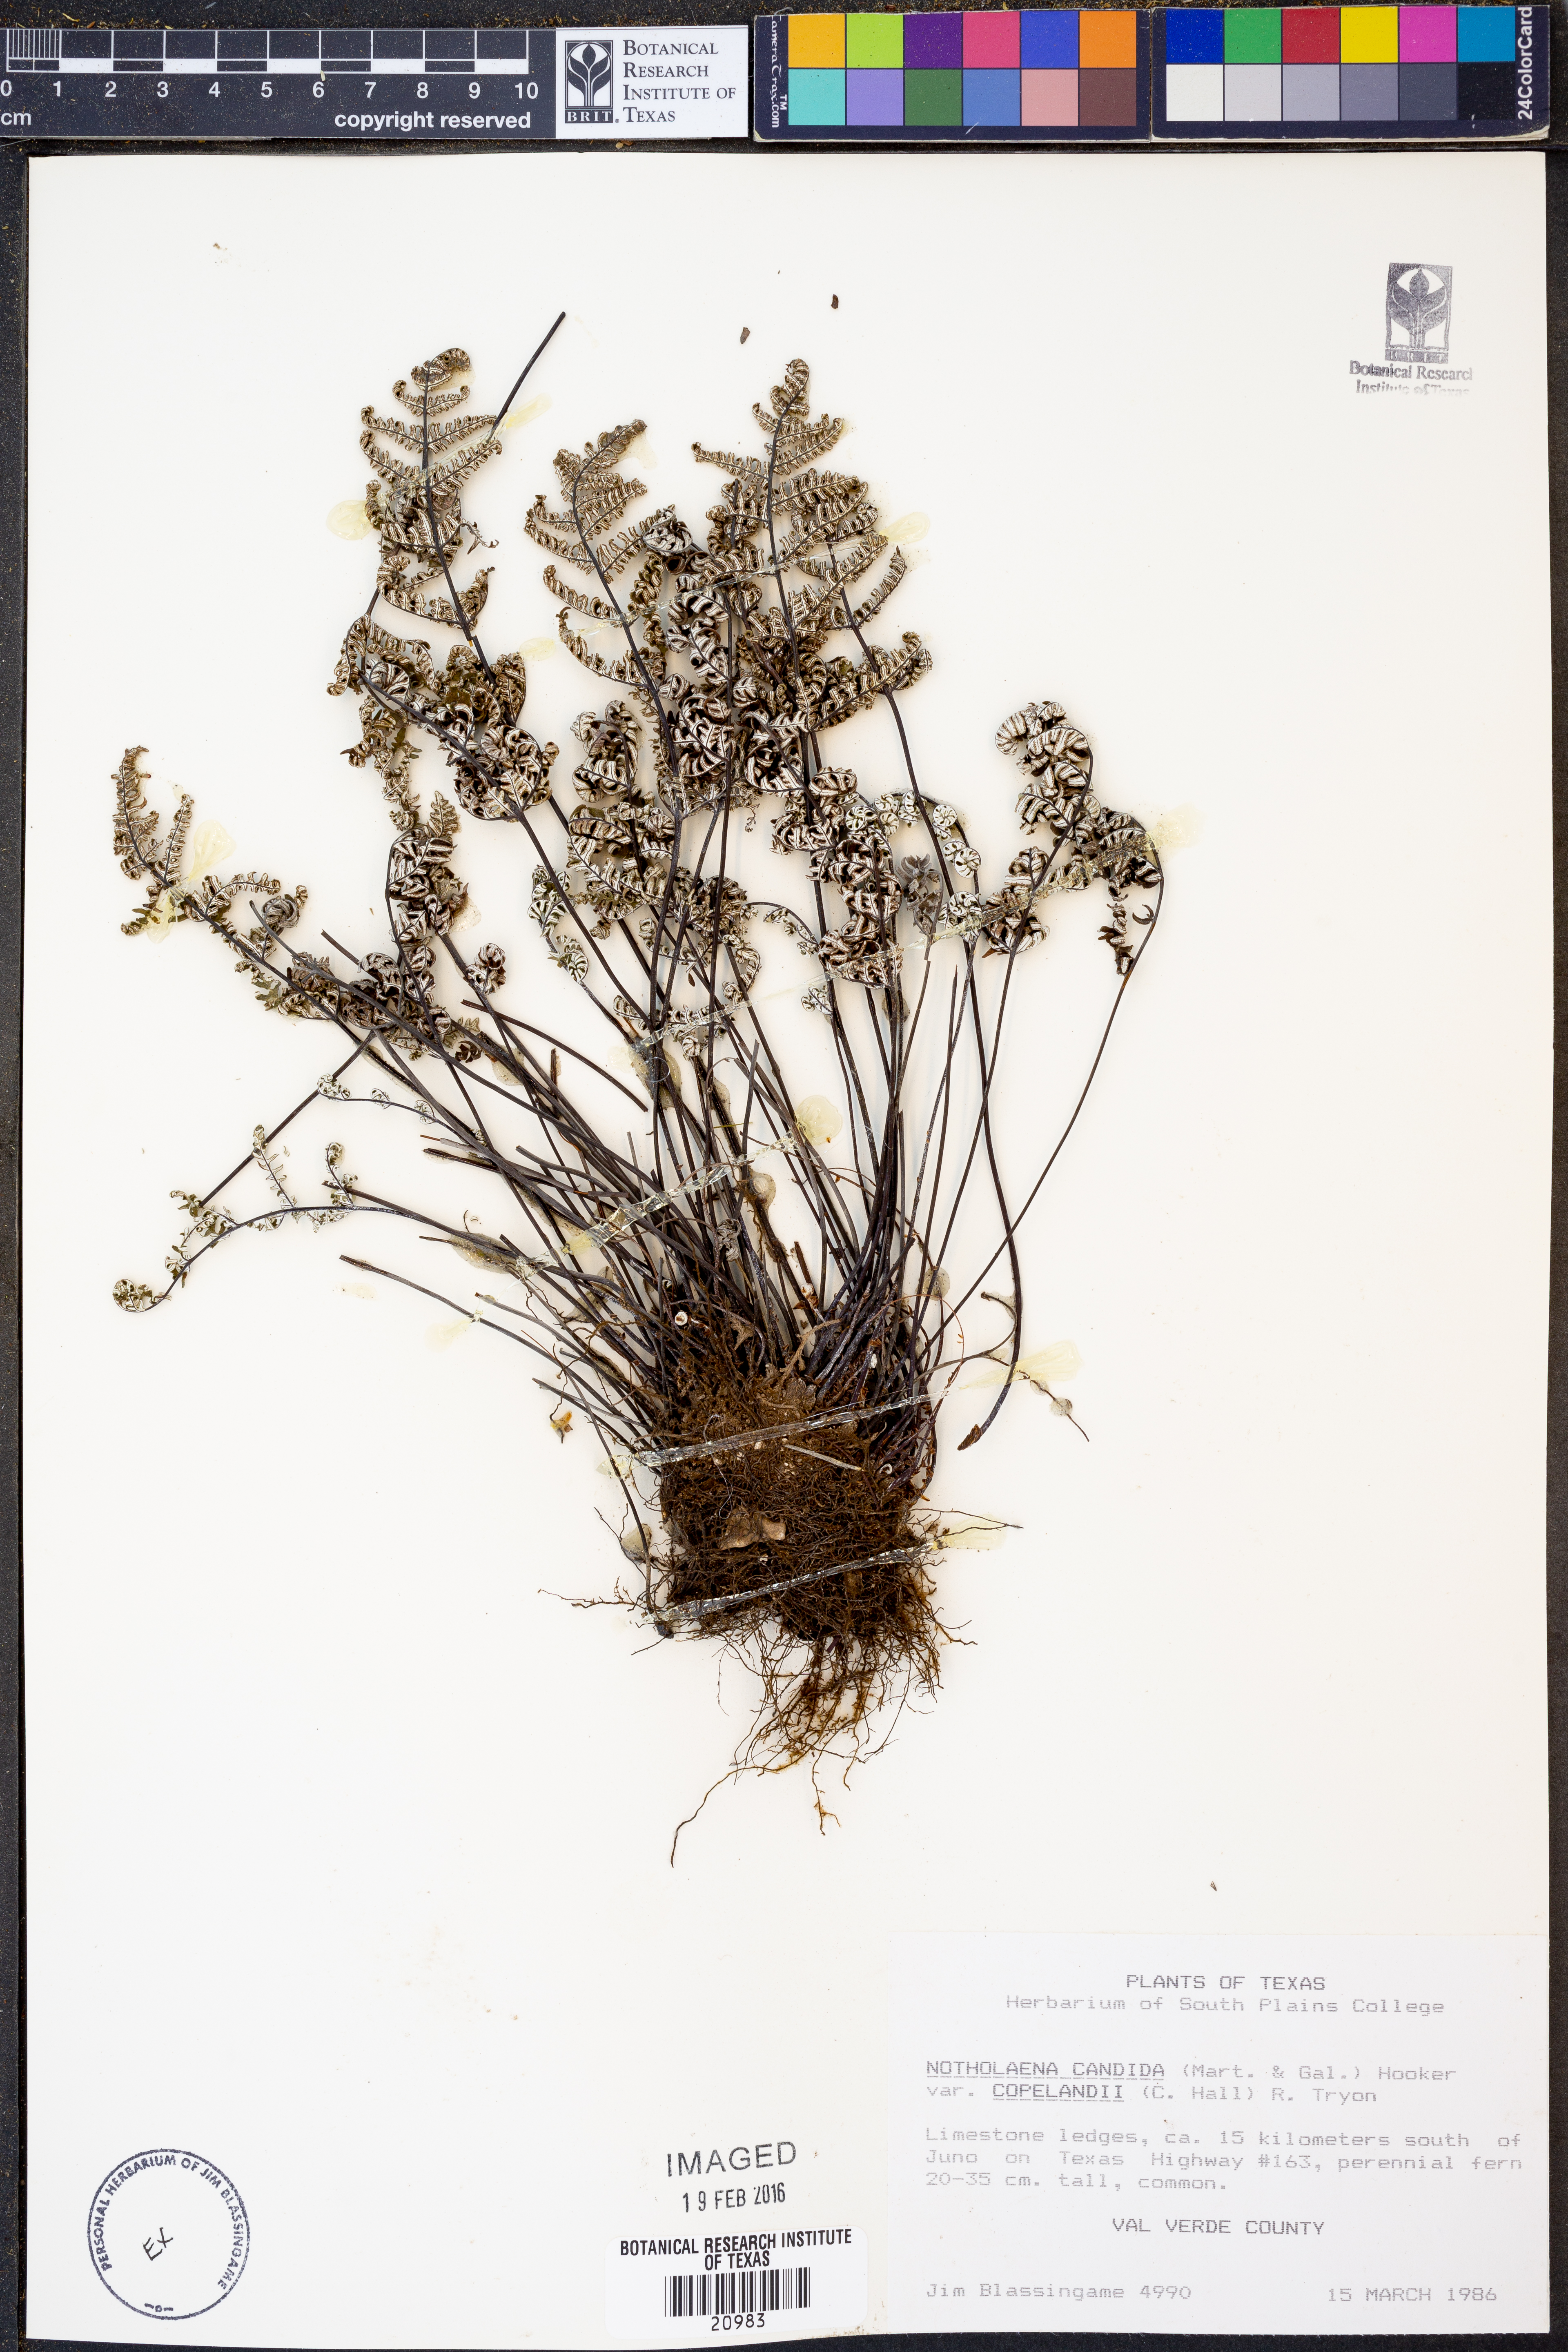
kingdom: Plantae
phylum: Tracheophyta
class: Polypodiopsida
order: Polypodiales
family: Pteridaceae
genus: Notholaena
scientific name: Notholaena candida
